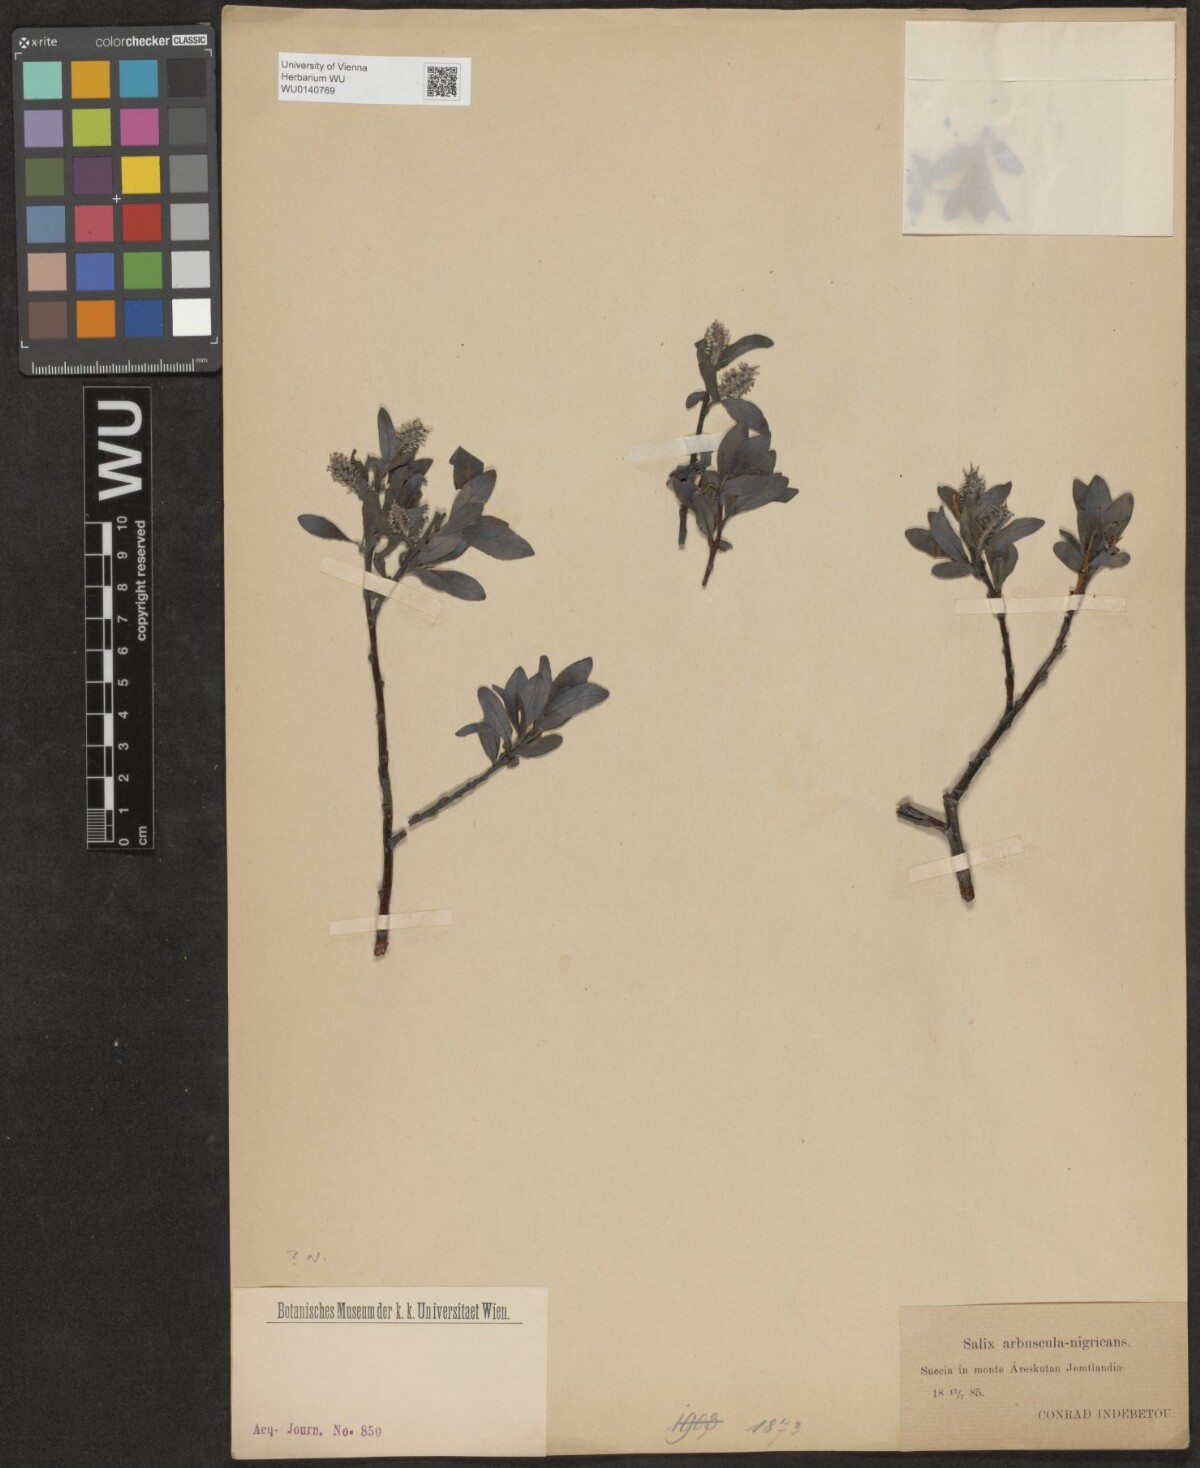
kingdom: Plantae
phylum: Tracheophyta
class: Magnoliopsida
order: Malpighiales
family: Salicaceae
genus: Salix
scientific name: Salix
